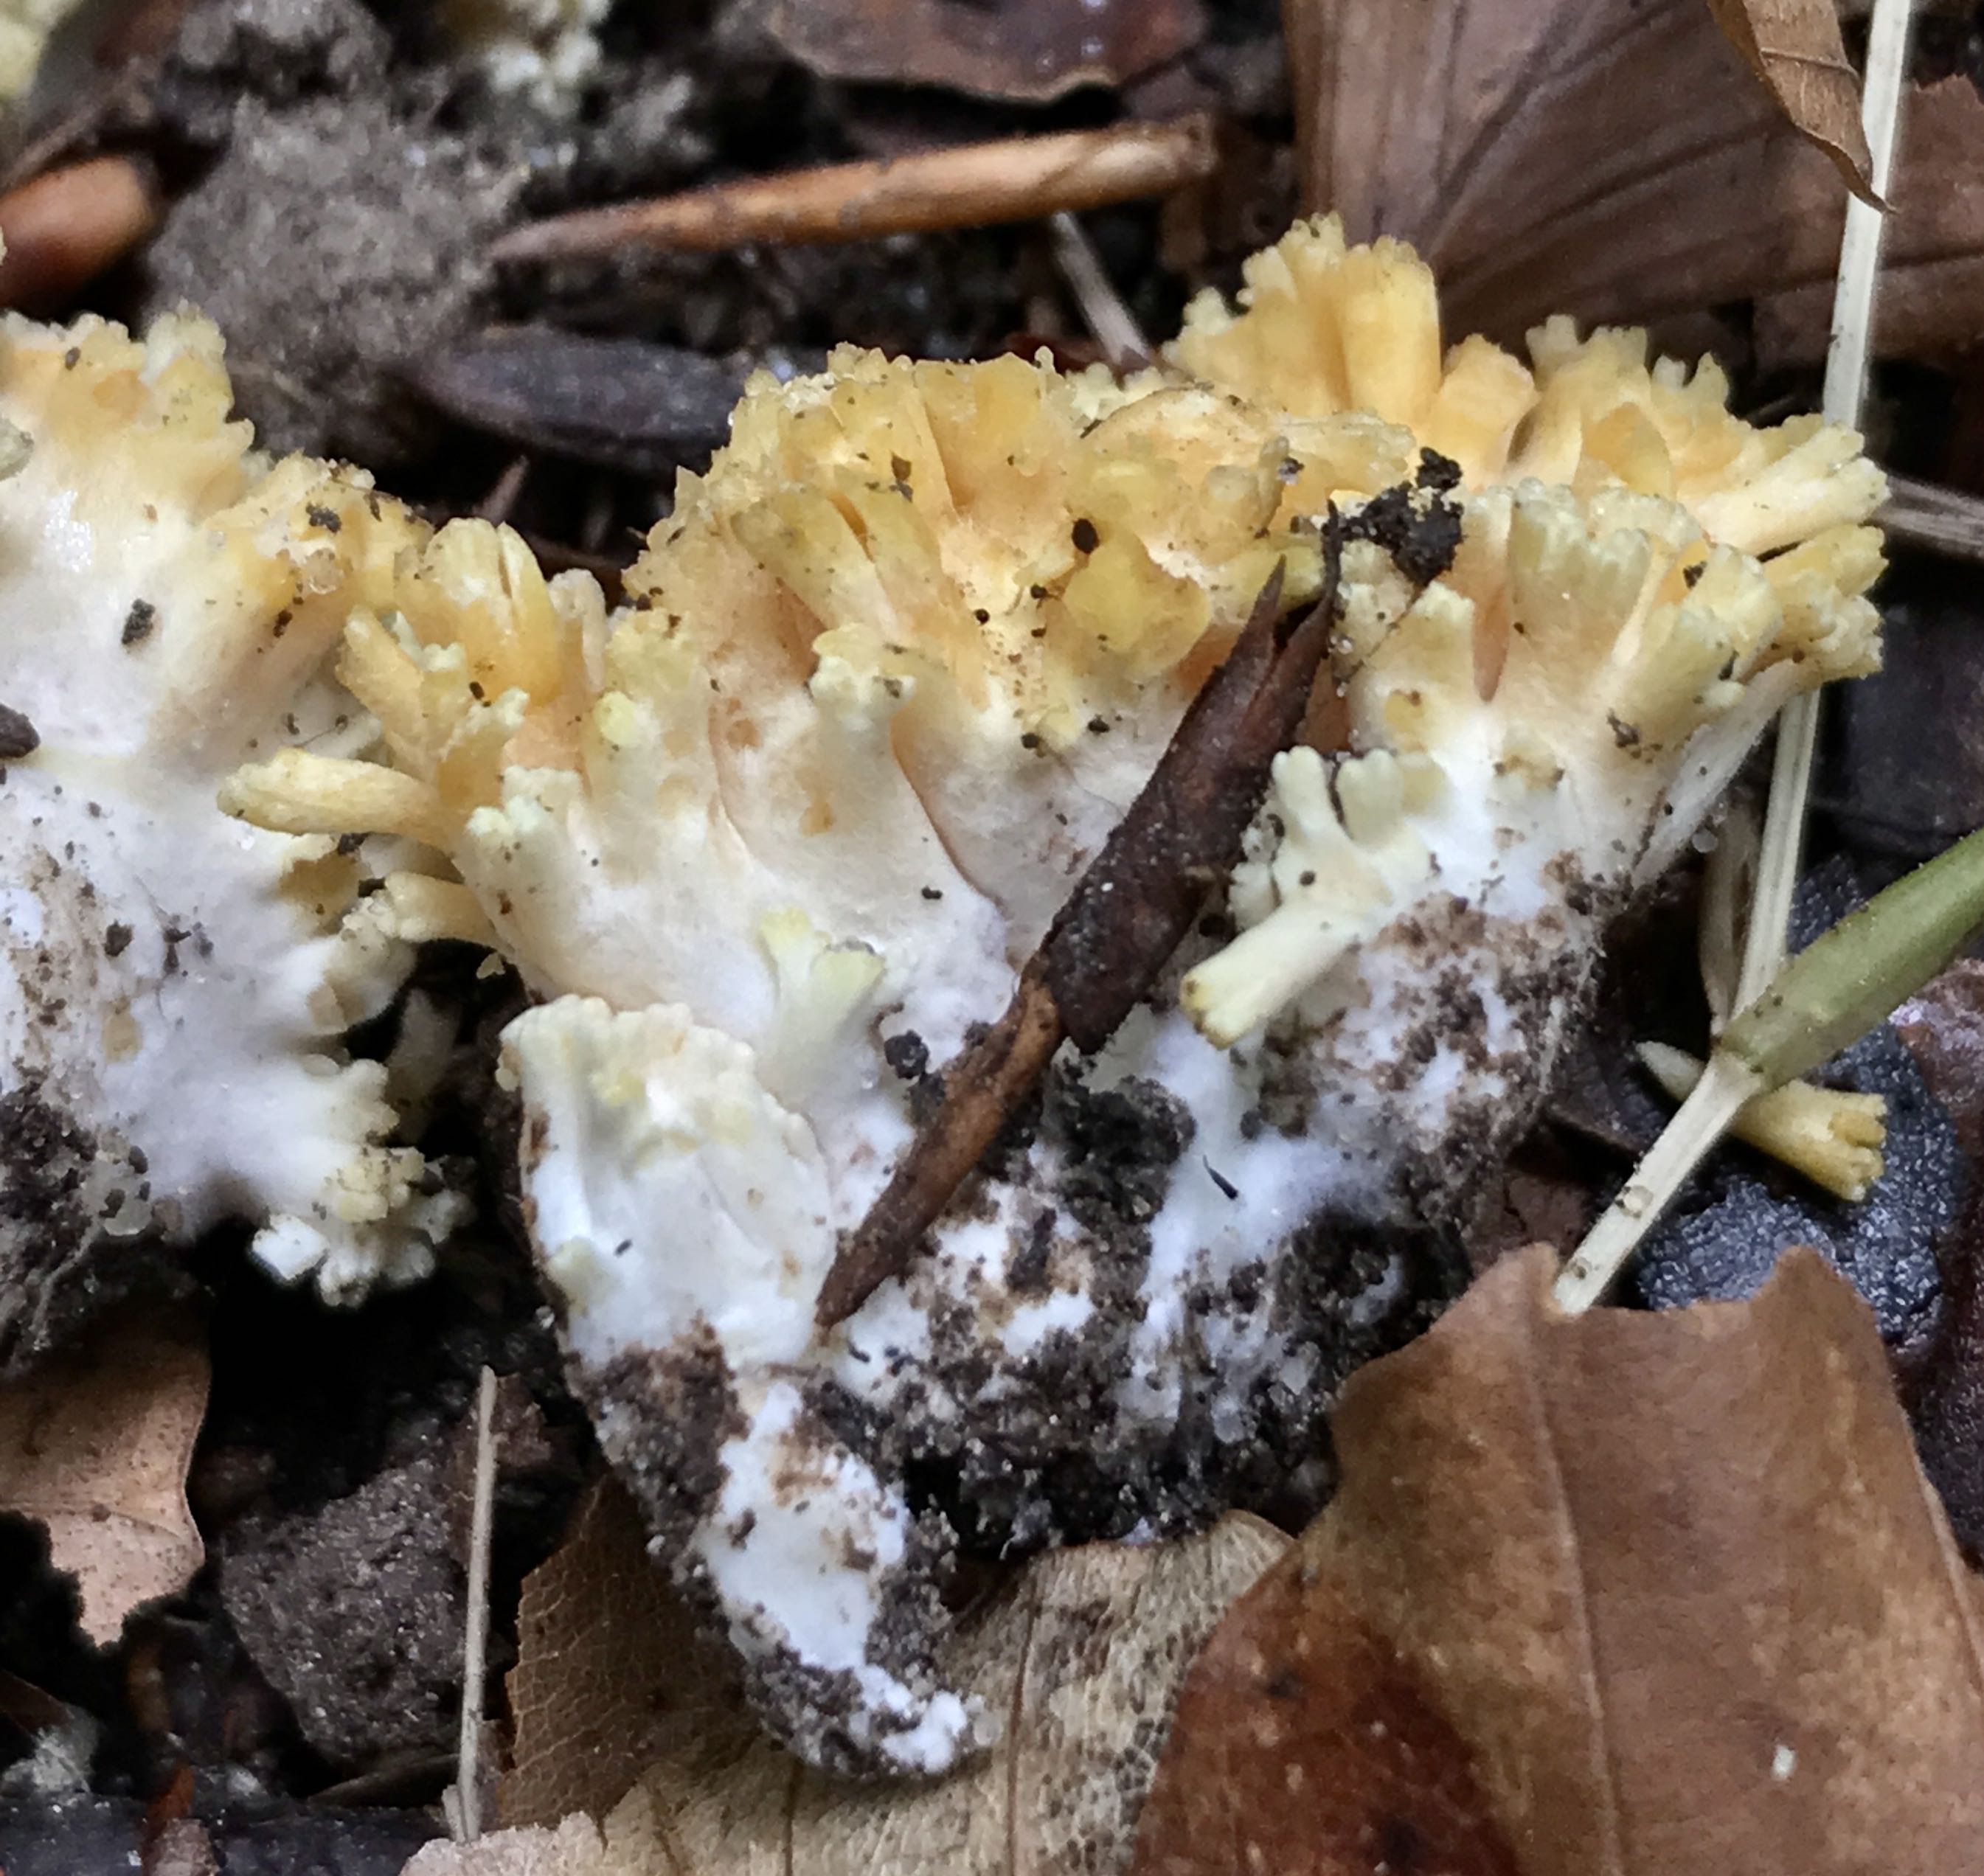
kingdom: Fungi
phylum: Basidiomycota
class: Agaricomycetes
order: Gomphales
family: Gomphaceae
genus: Ramaria
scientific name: Ramaria
